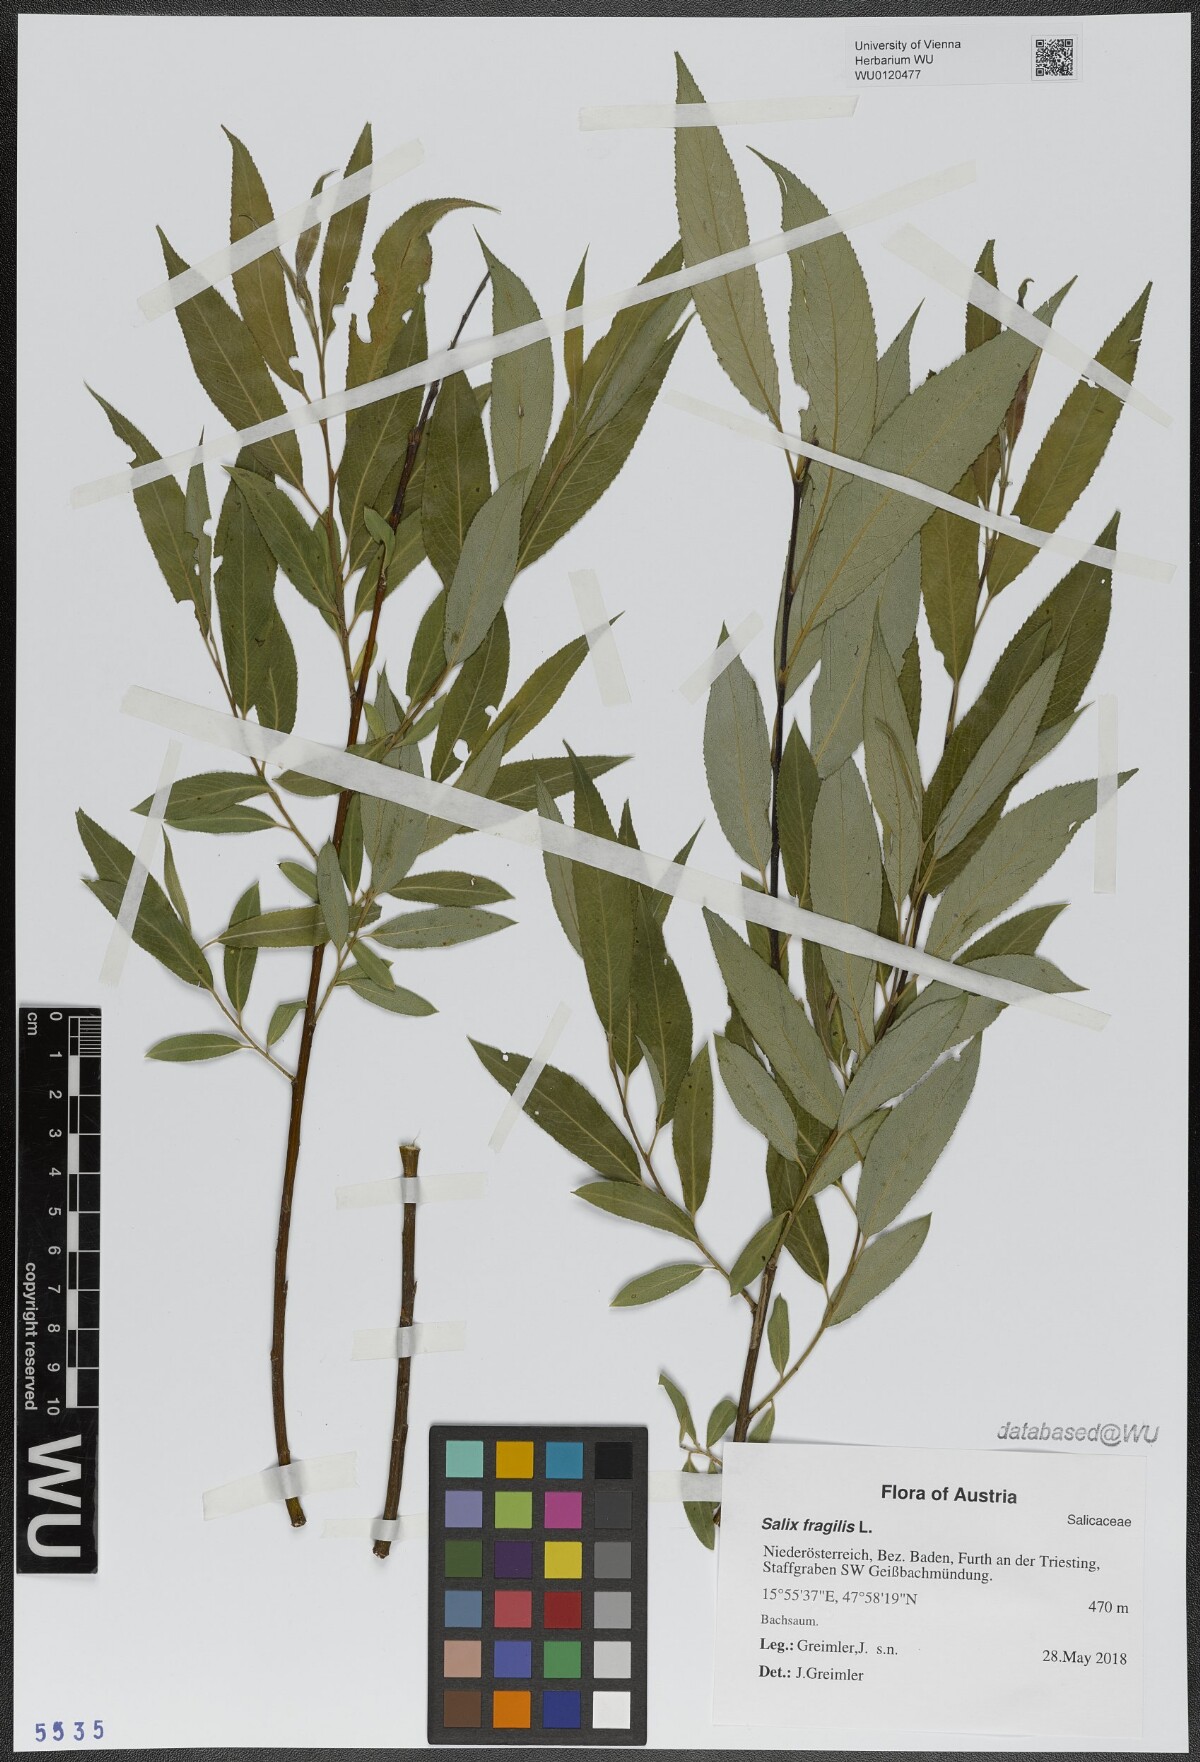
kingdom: Plantae
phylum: Tracheophyta
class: Magnoliopsida
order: Malpighiales
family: Salicaceae
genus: Salix
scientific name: Salix fragilis
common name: Crack willow
